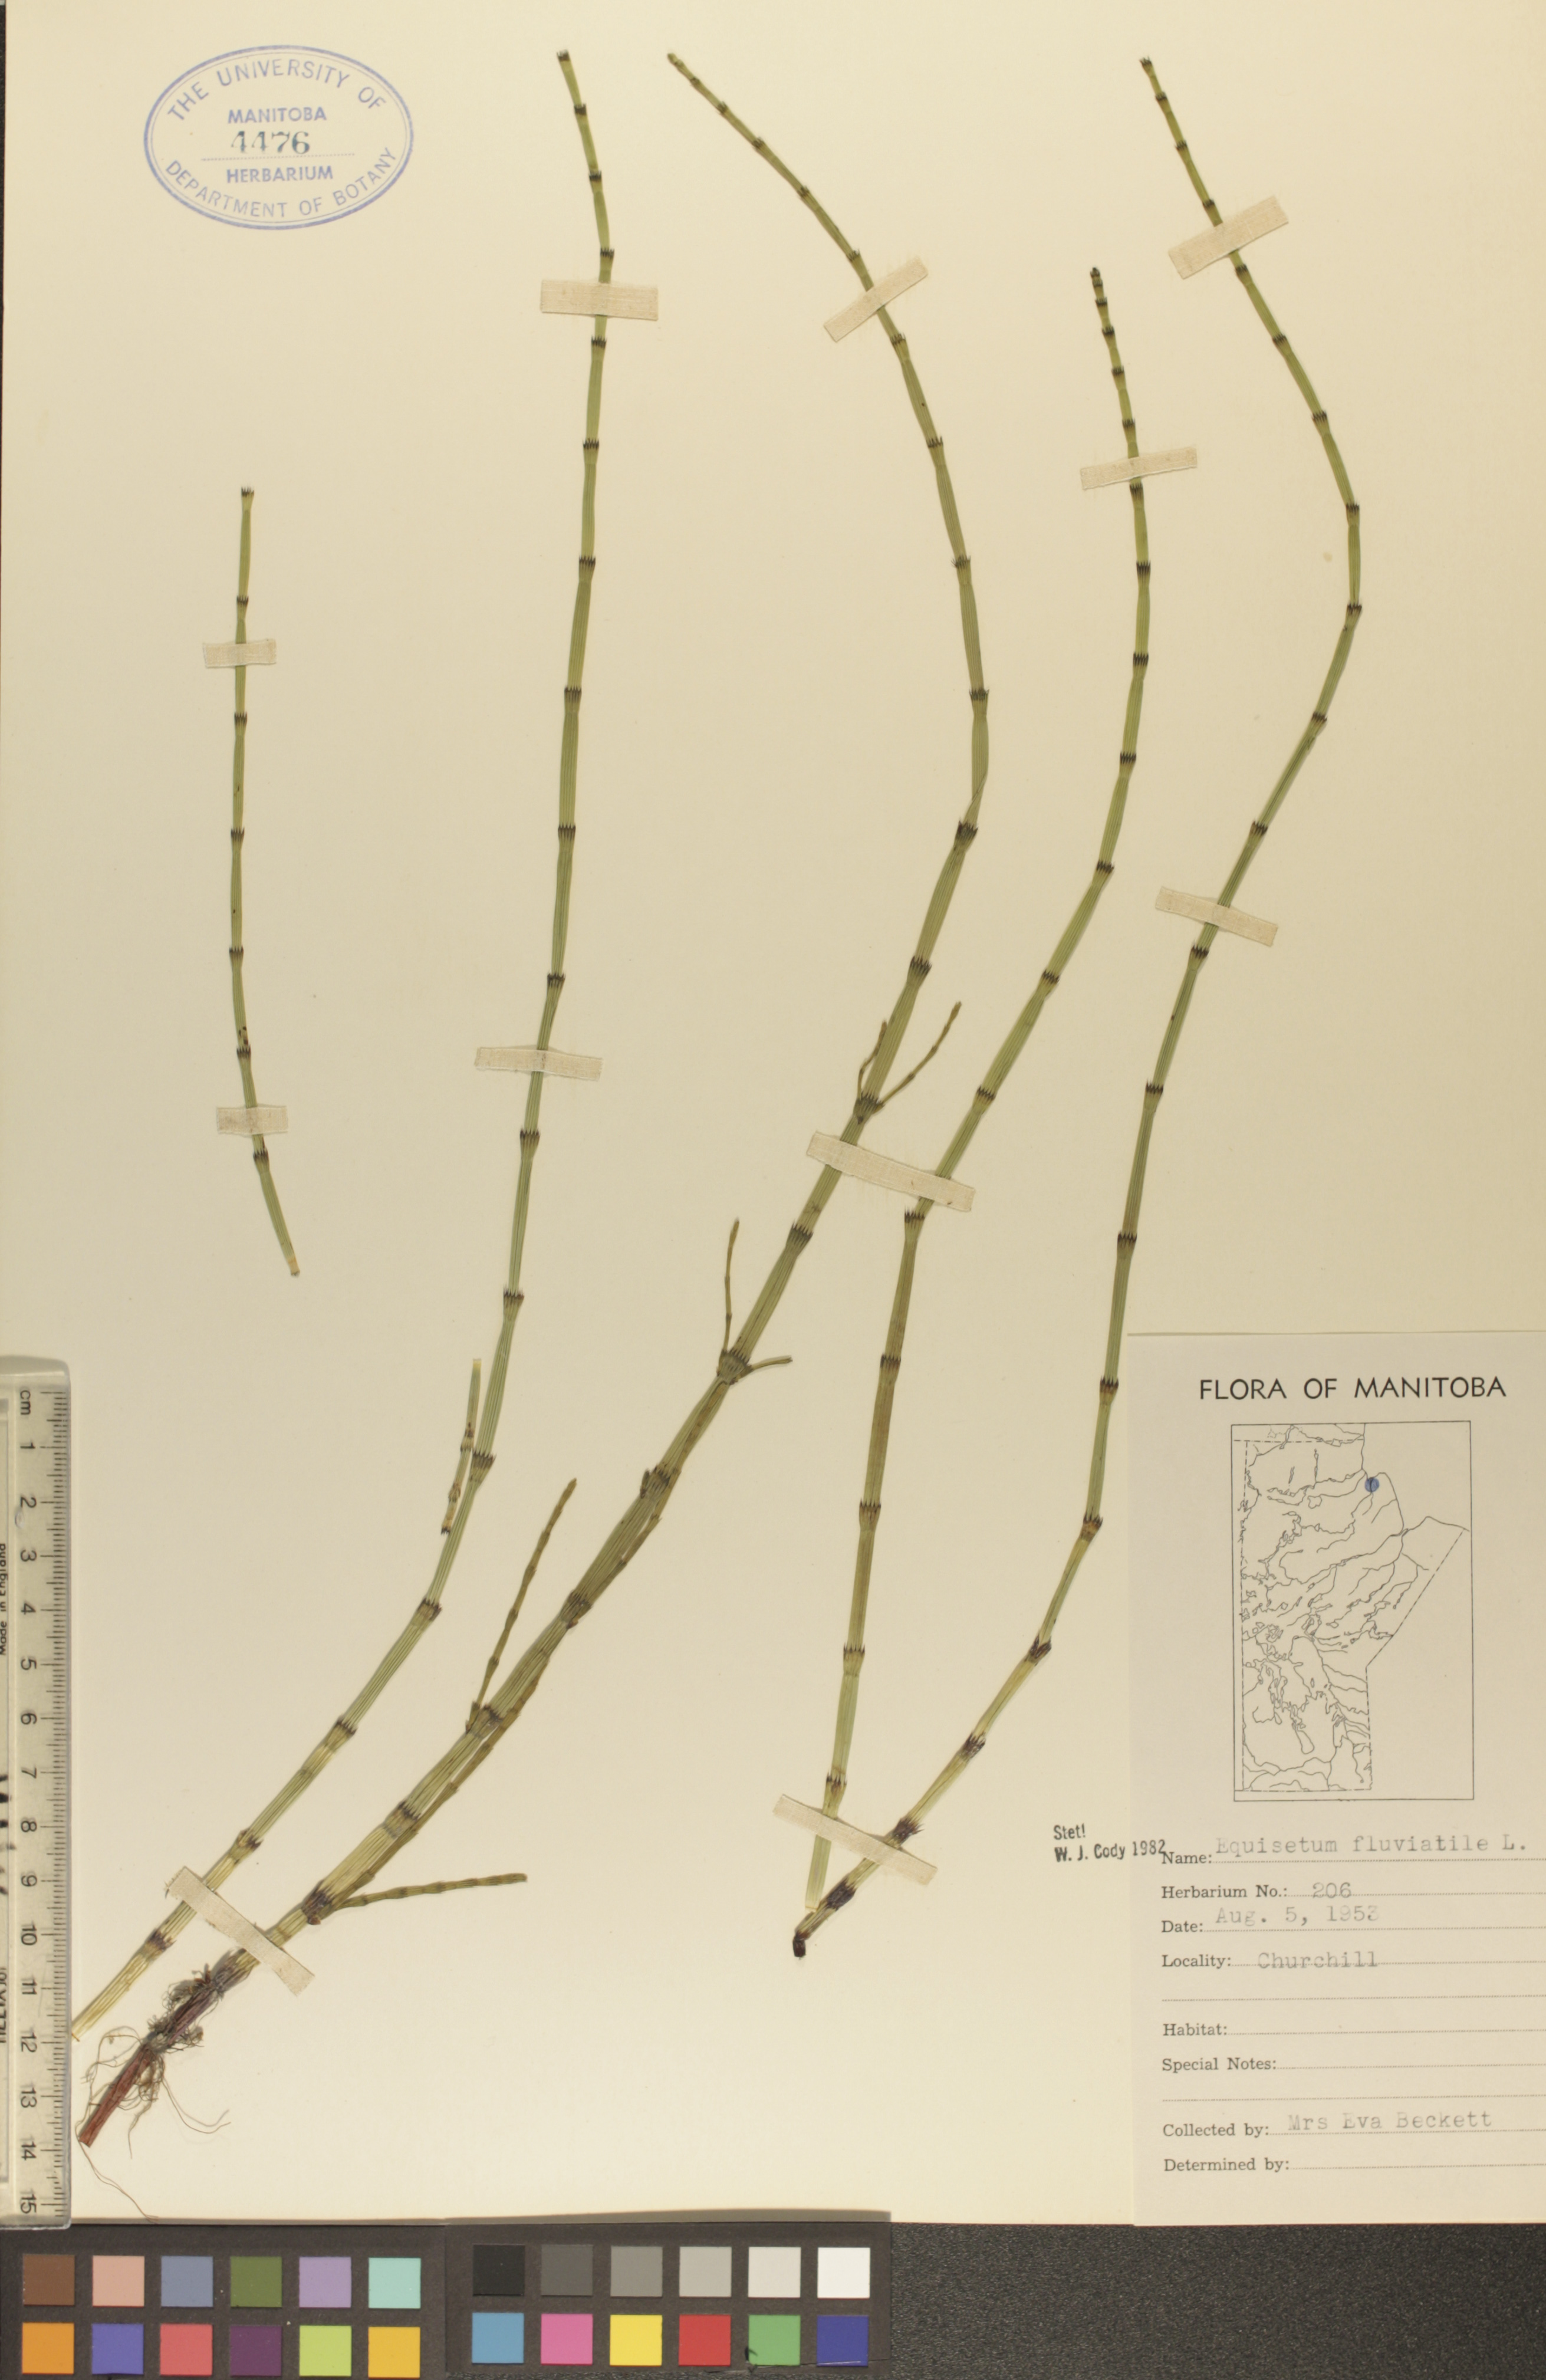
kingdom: Plantae
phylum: Tracheophyta
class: Polypodiopsida
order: Equisetales
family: Equisetaceae
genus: Equisetum
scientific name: Equisetum fluviatile
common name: Water horsetail
